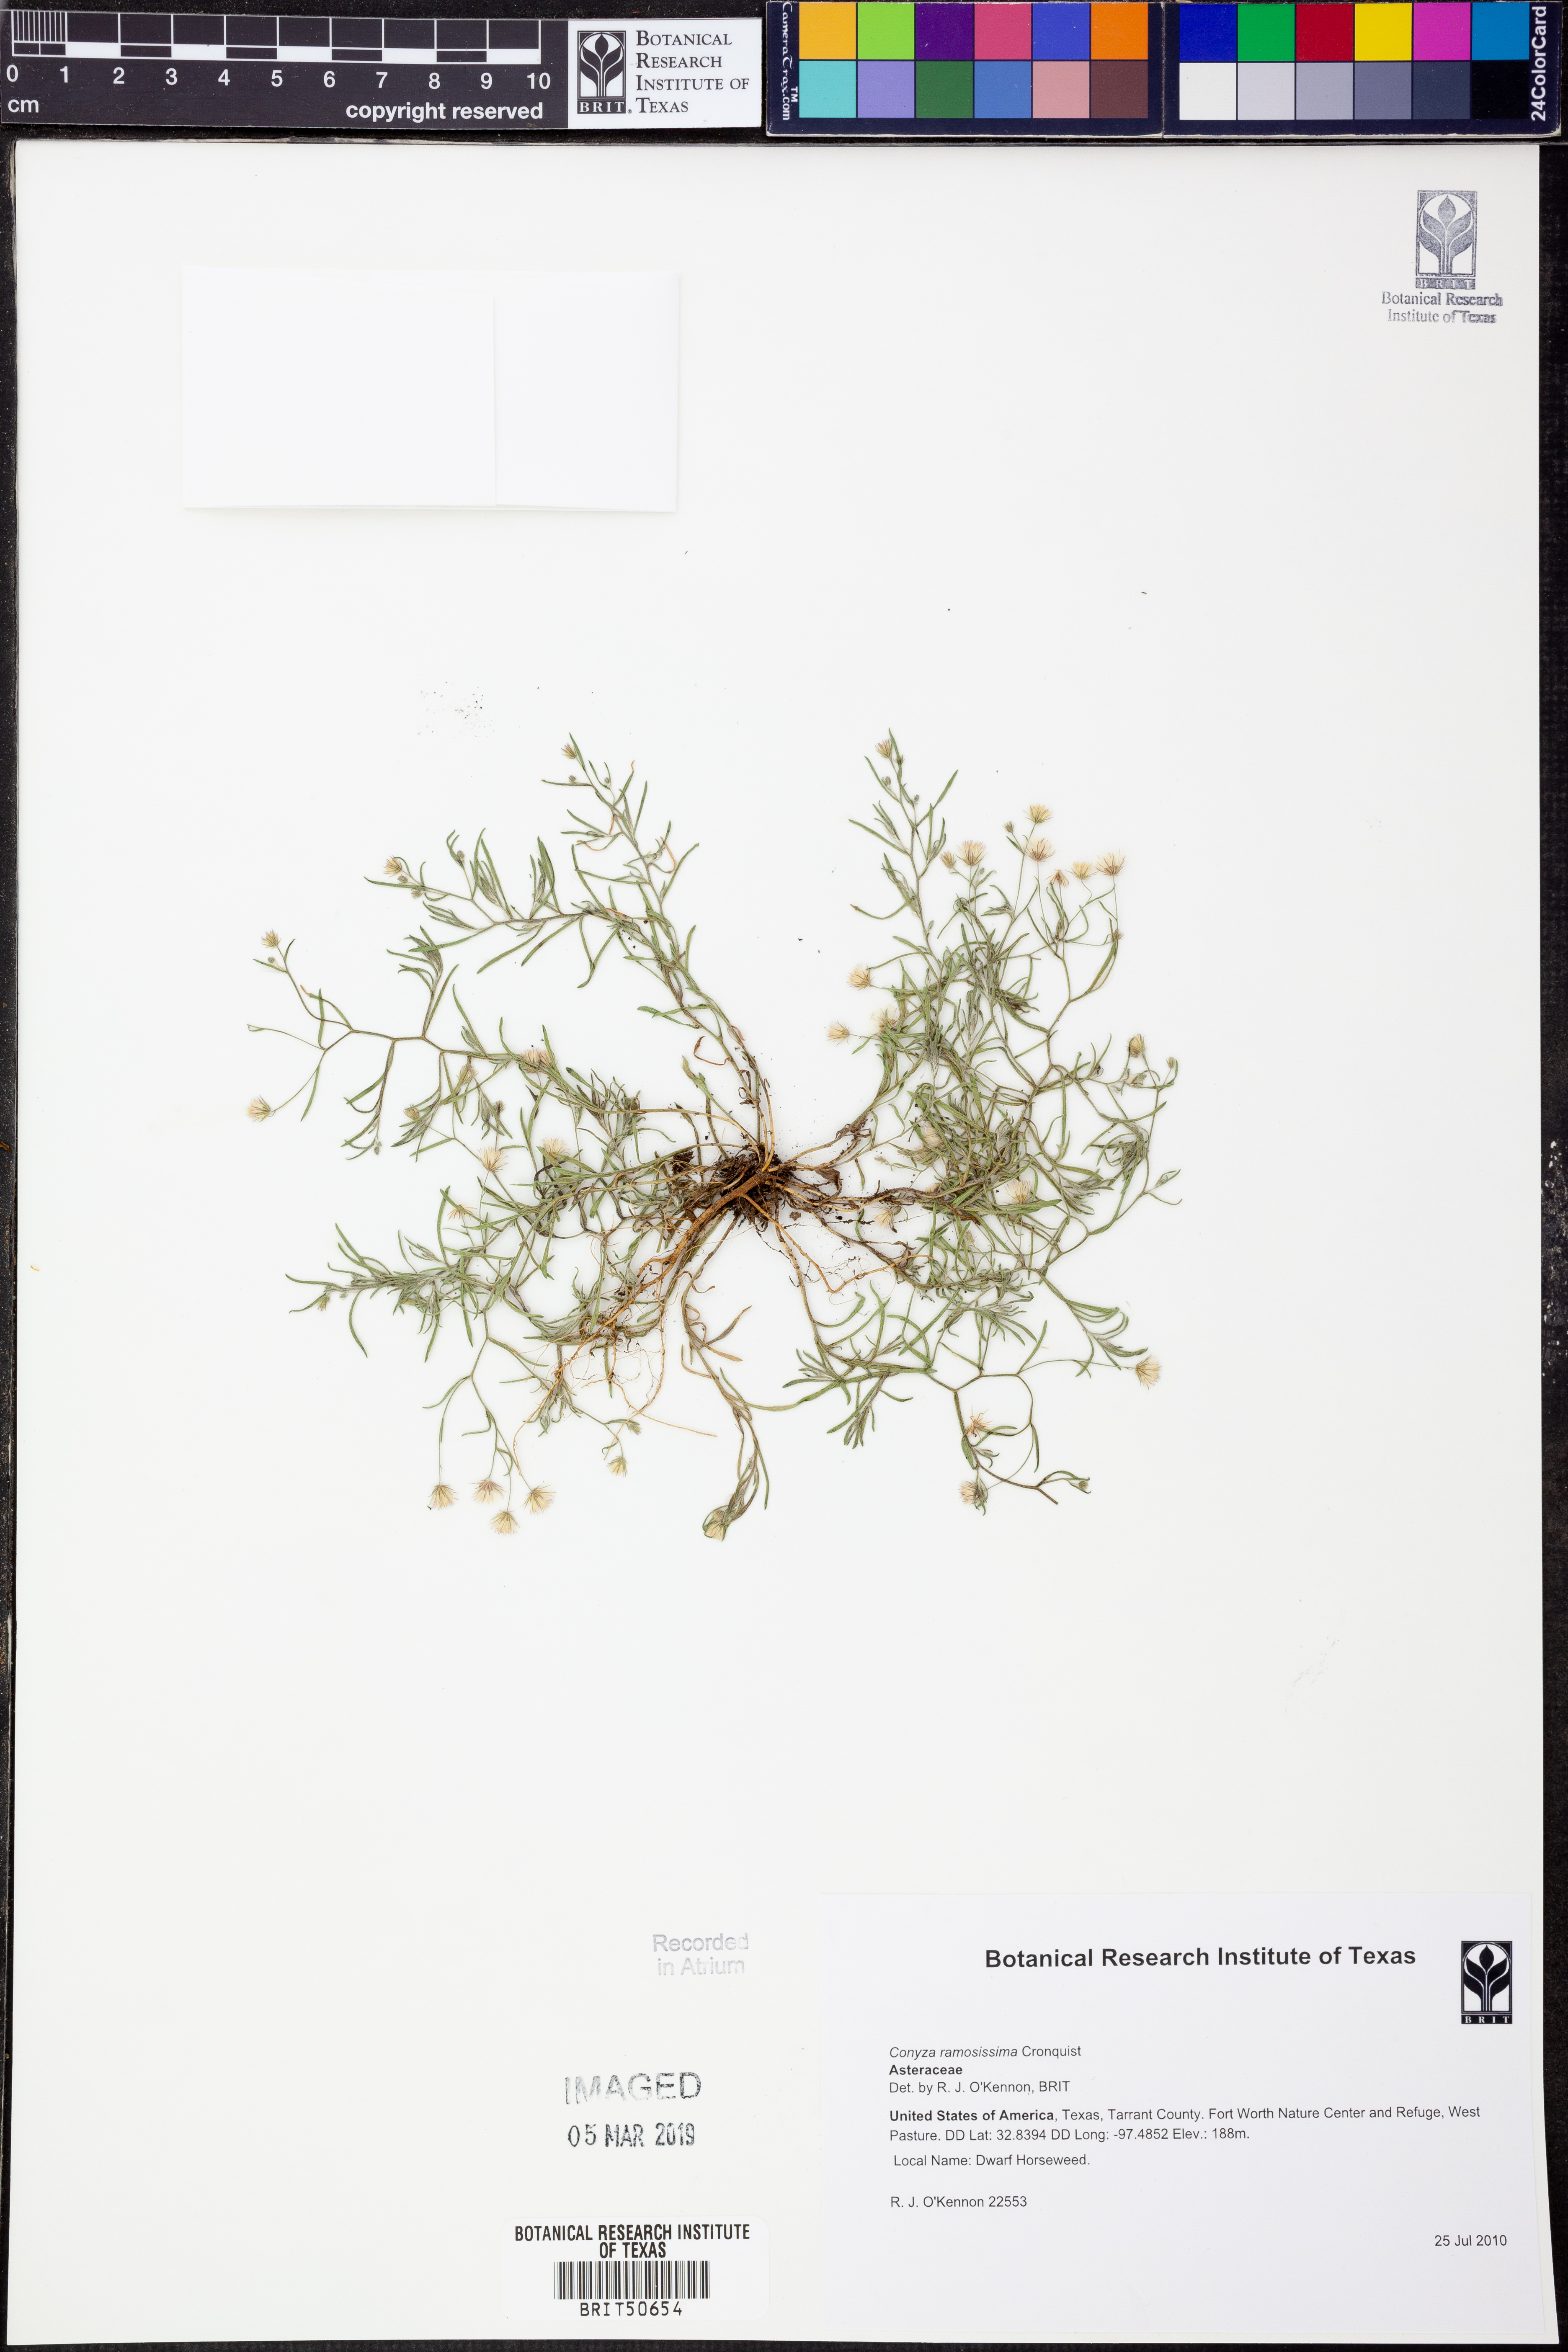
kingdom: Plantae
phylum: Tracheophyta
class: Magnoliopsida
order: Asterales
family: Asteraceae
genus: Erigeron
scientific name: Erigeron divaricatus
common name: Dwarf conyza
